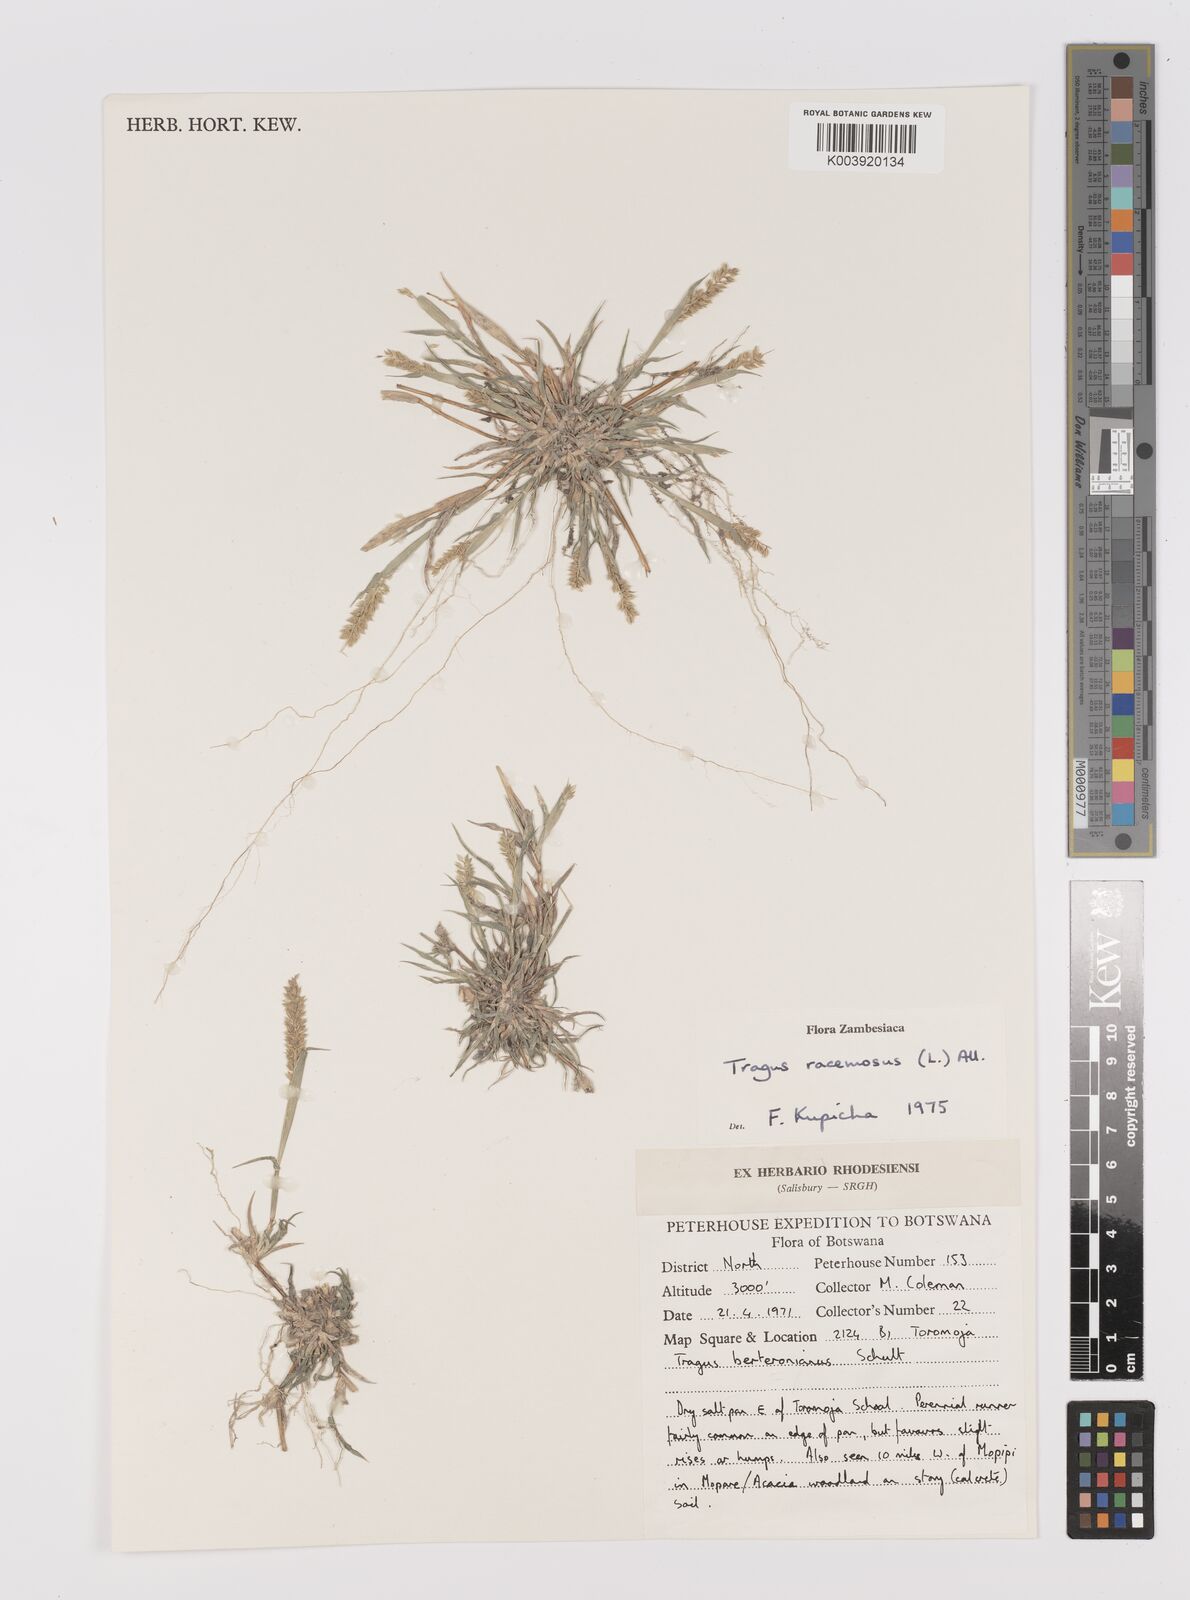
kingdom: Plantae
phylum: Tracheophyta
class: Liliopsida
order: Poales
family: Poaceae
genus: Tragus
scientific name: Tragus racemosus
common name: European bur-grass
